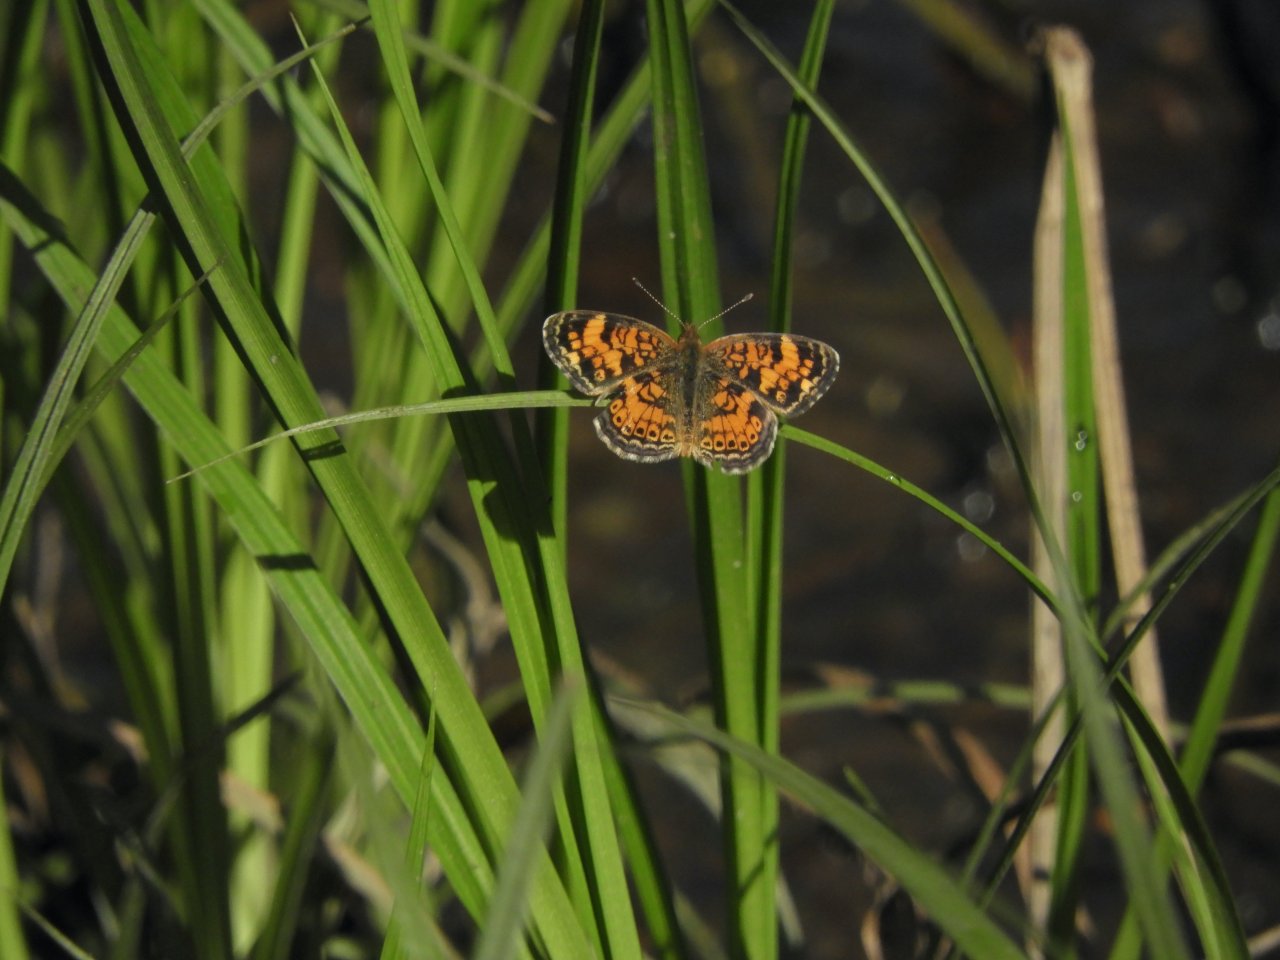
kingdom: Animalia
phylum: Arthropoda
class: Insecta
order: Lepidoptera
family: Nymphalidae
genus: Phyciodes
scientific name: Phyciodes tharos
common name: Pearl Crescent
